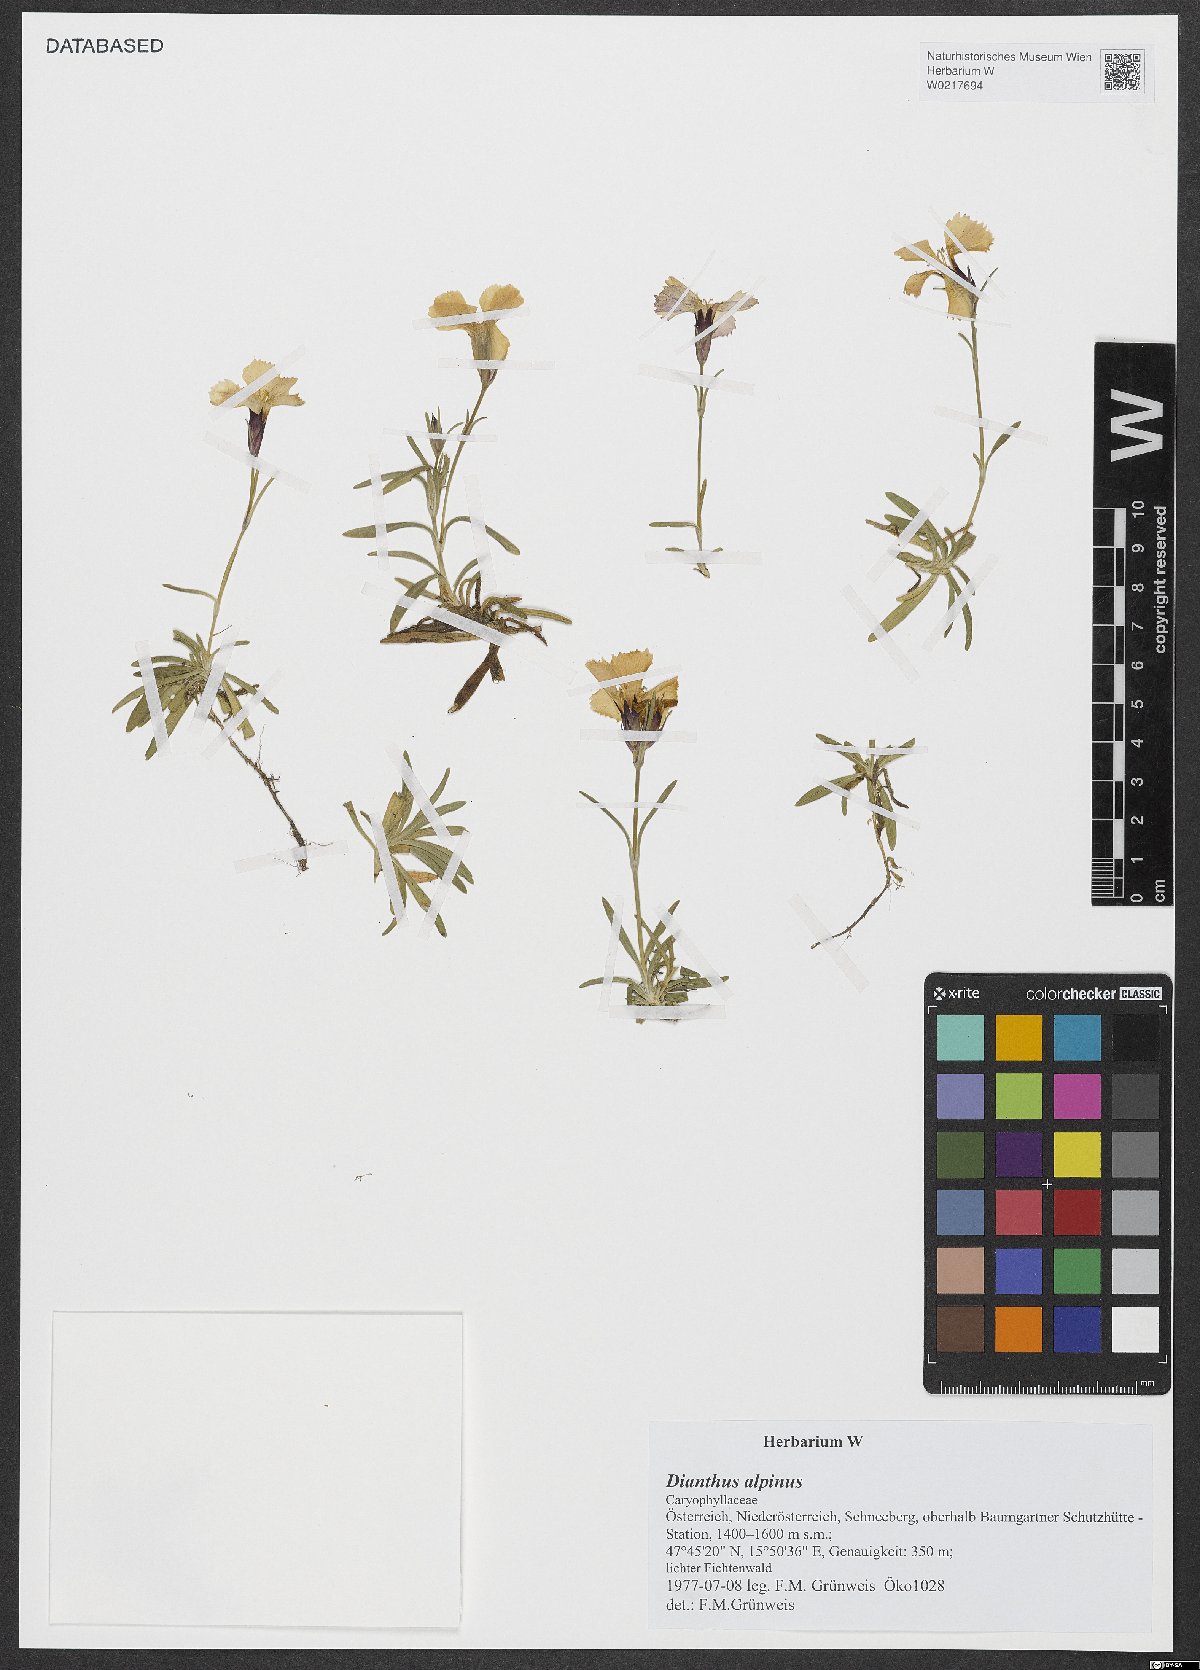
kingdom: Plantae
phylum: Tracheophyta
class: Magnoliopsida
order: Caryophyllales
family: Caryophyllaceae
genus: Dianthus
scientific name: Dianthus alpinus
